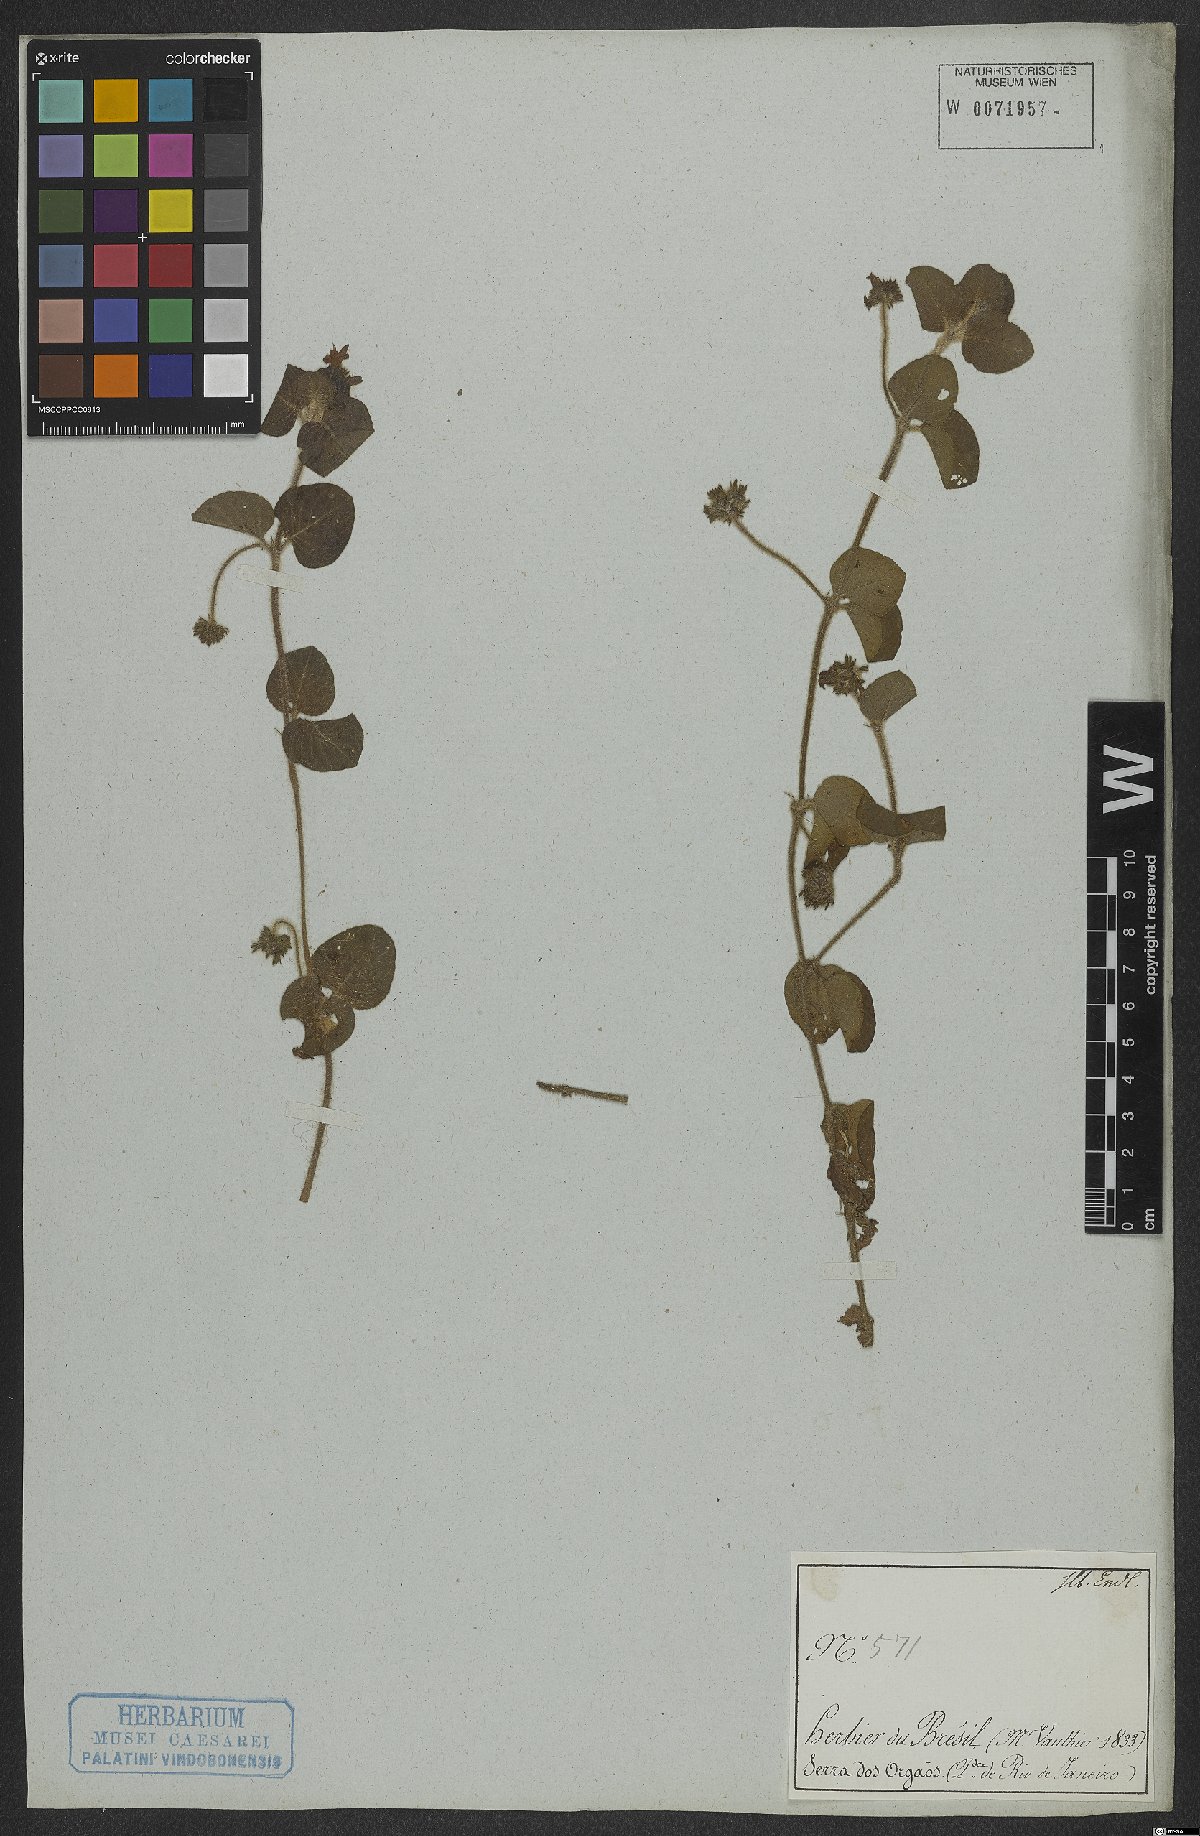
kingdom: Plantae
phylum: Tracheophyta
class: Magnoliopsida
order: Gentianales
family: Rubiaceae
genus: Coccocypselum
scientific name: Coccocypselum
